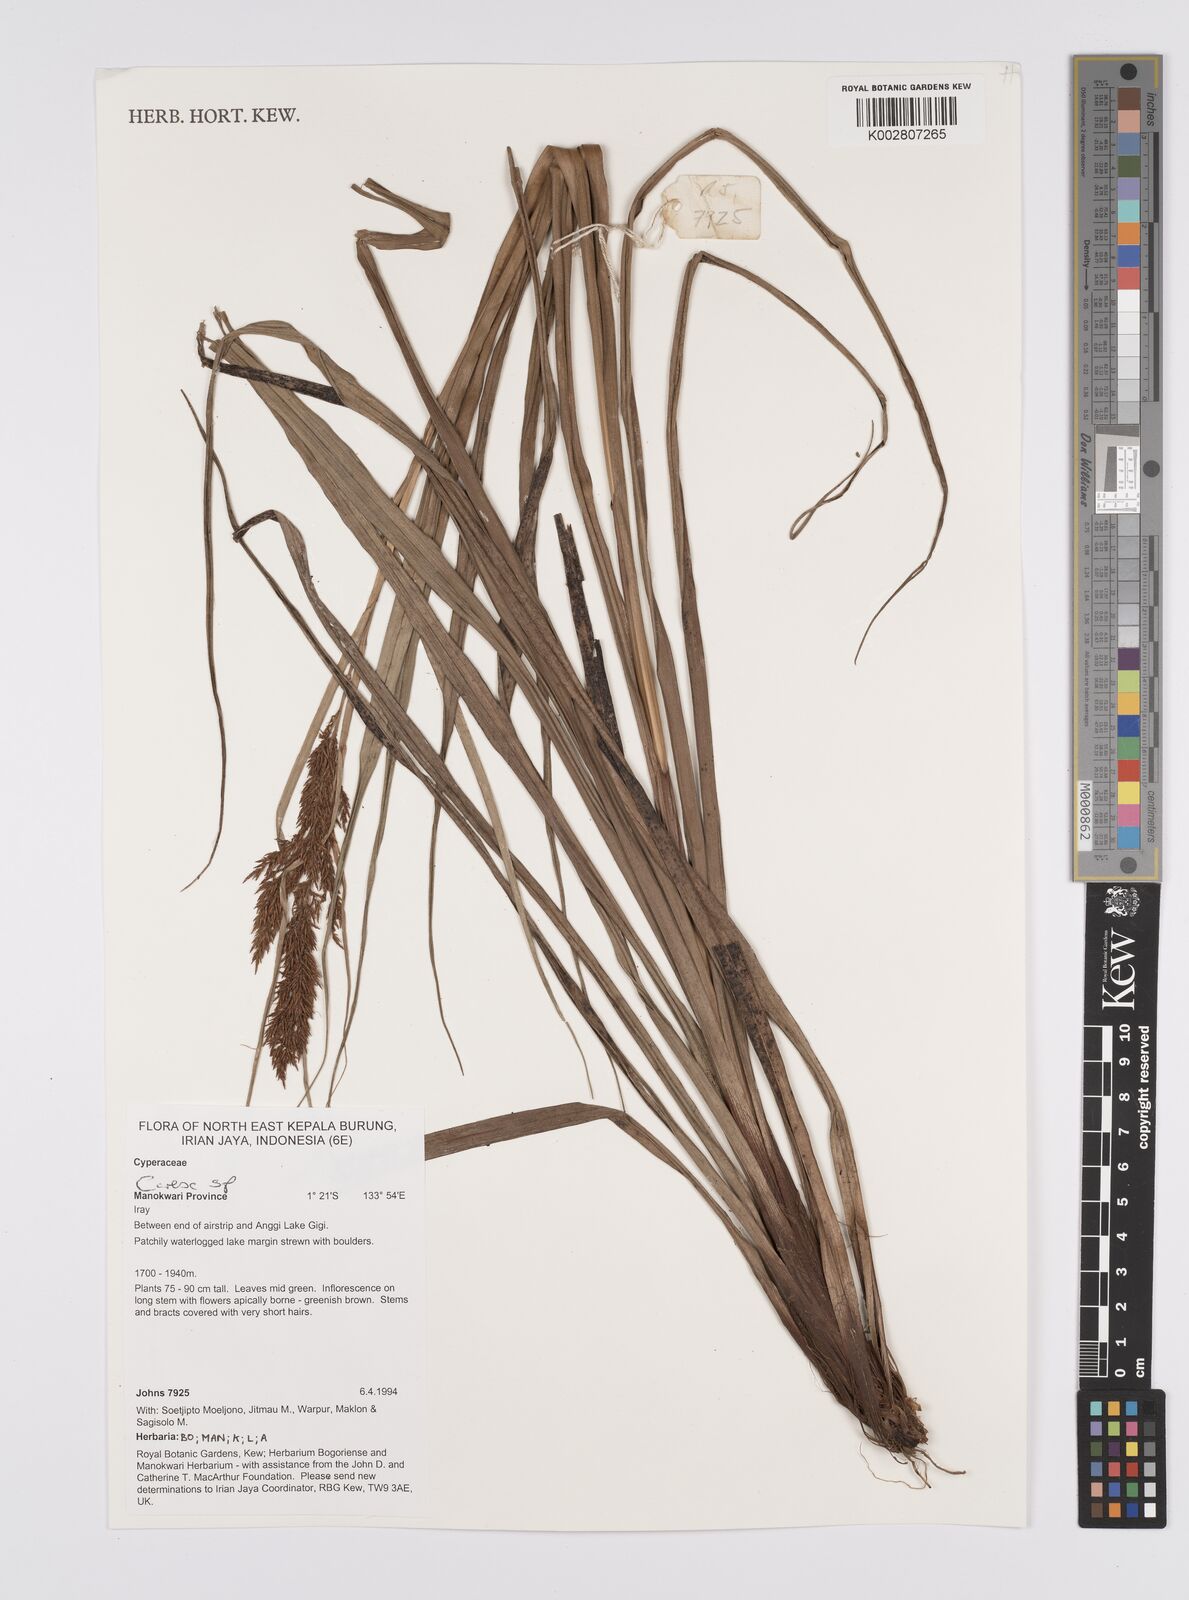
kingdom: Plantae
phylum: Tracheophyta
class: Liliopsida
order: Poales
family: Cyperaceae
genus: Carex
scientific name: Carex
